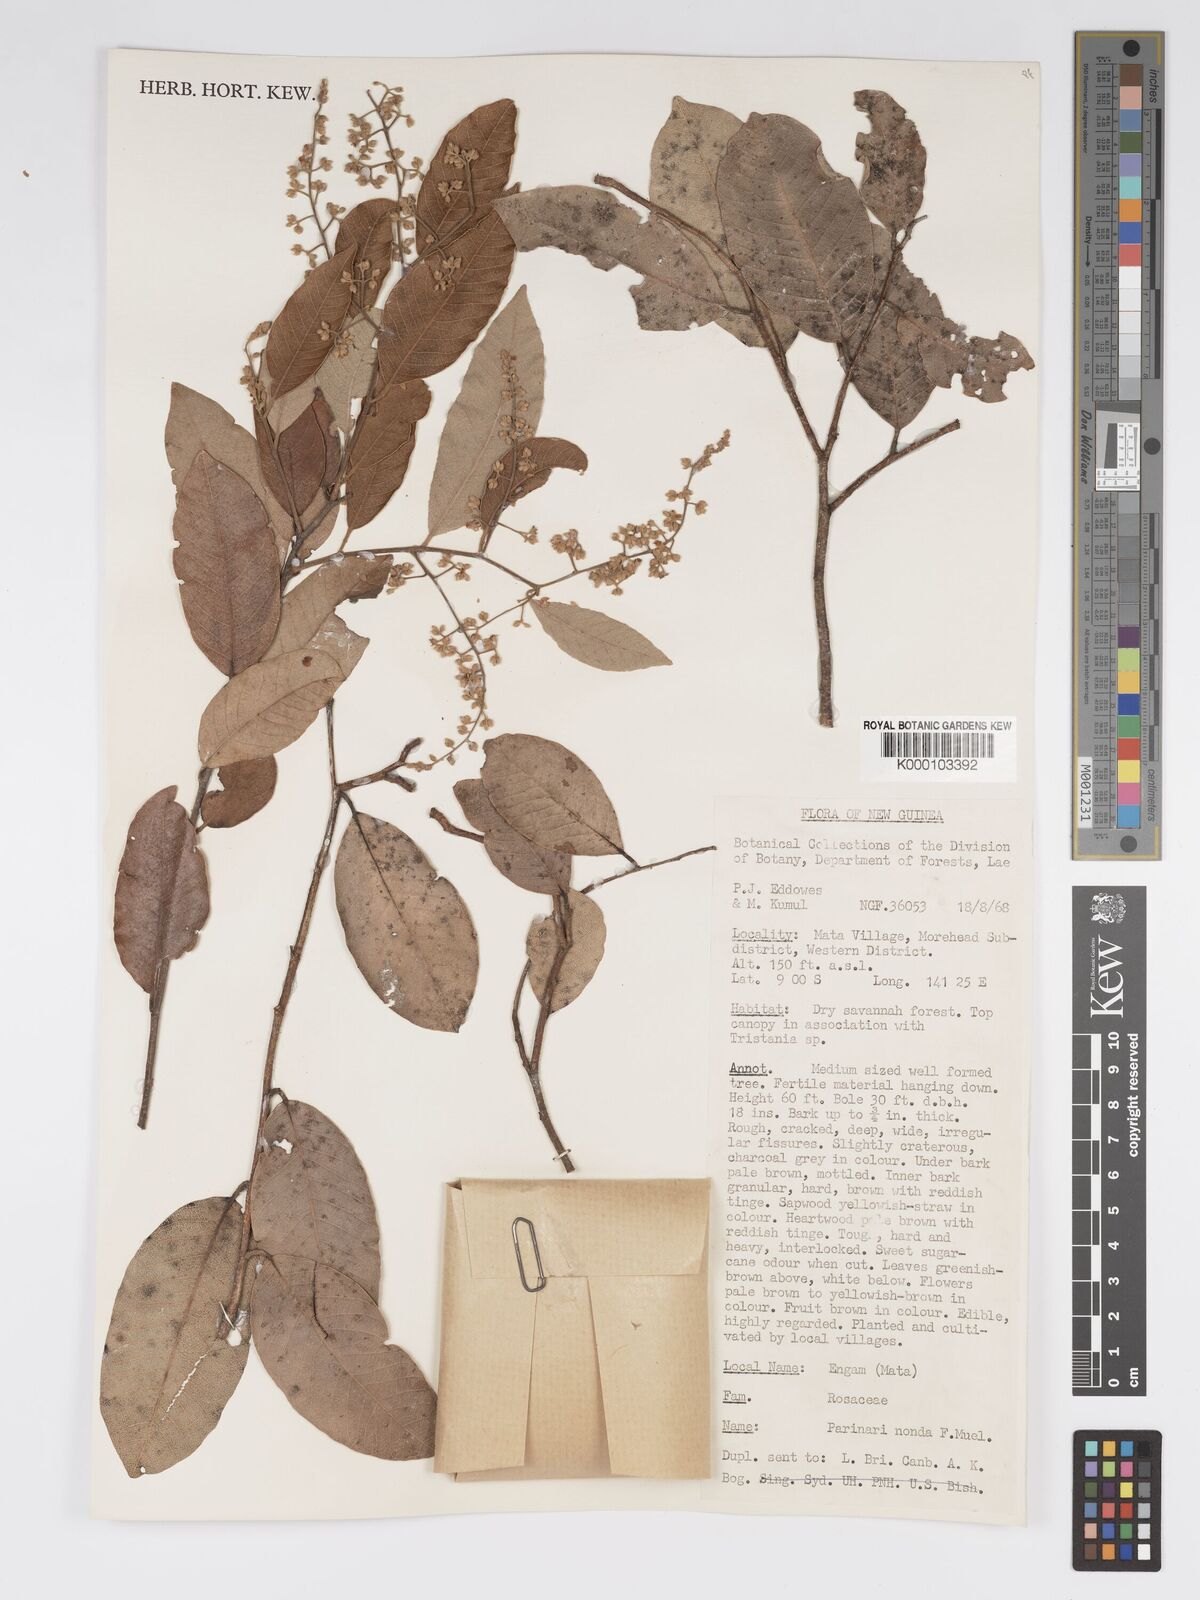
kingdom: Plantae
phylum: Tracheophyta
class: Magnoliopsida
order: Malpighiales
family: Chrysobalanaceae
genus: Parinari
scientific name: Parinari nonda
